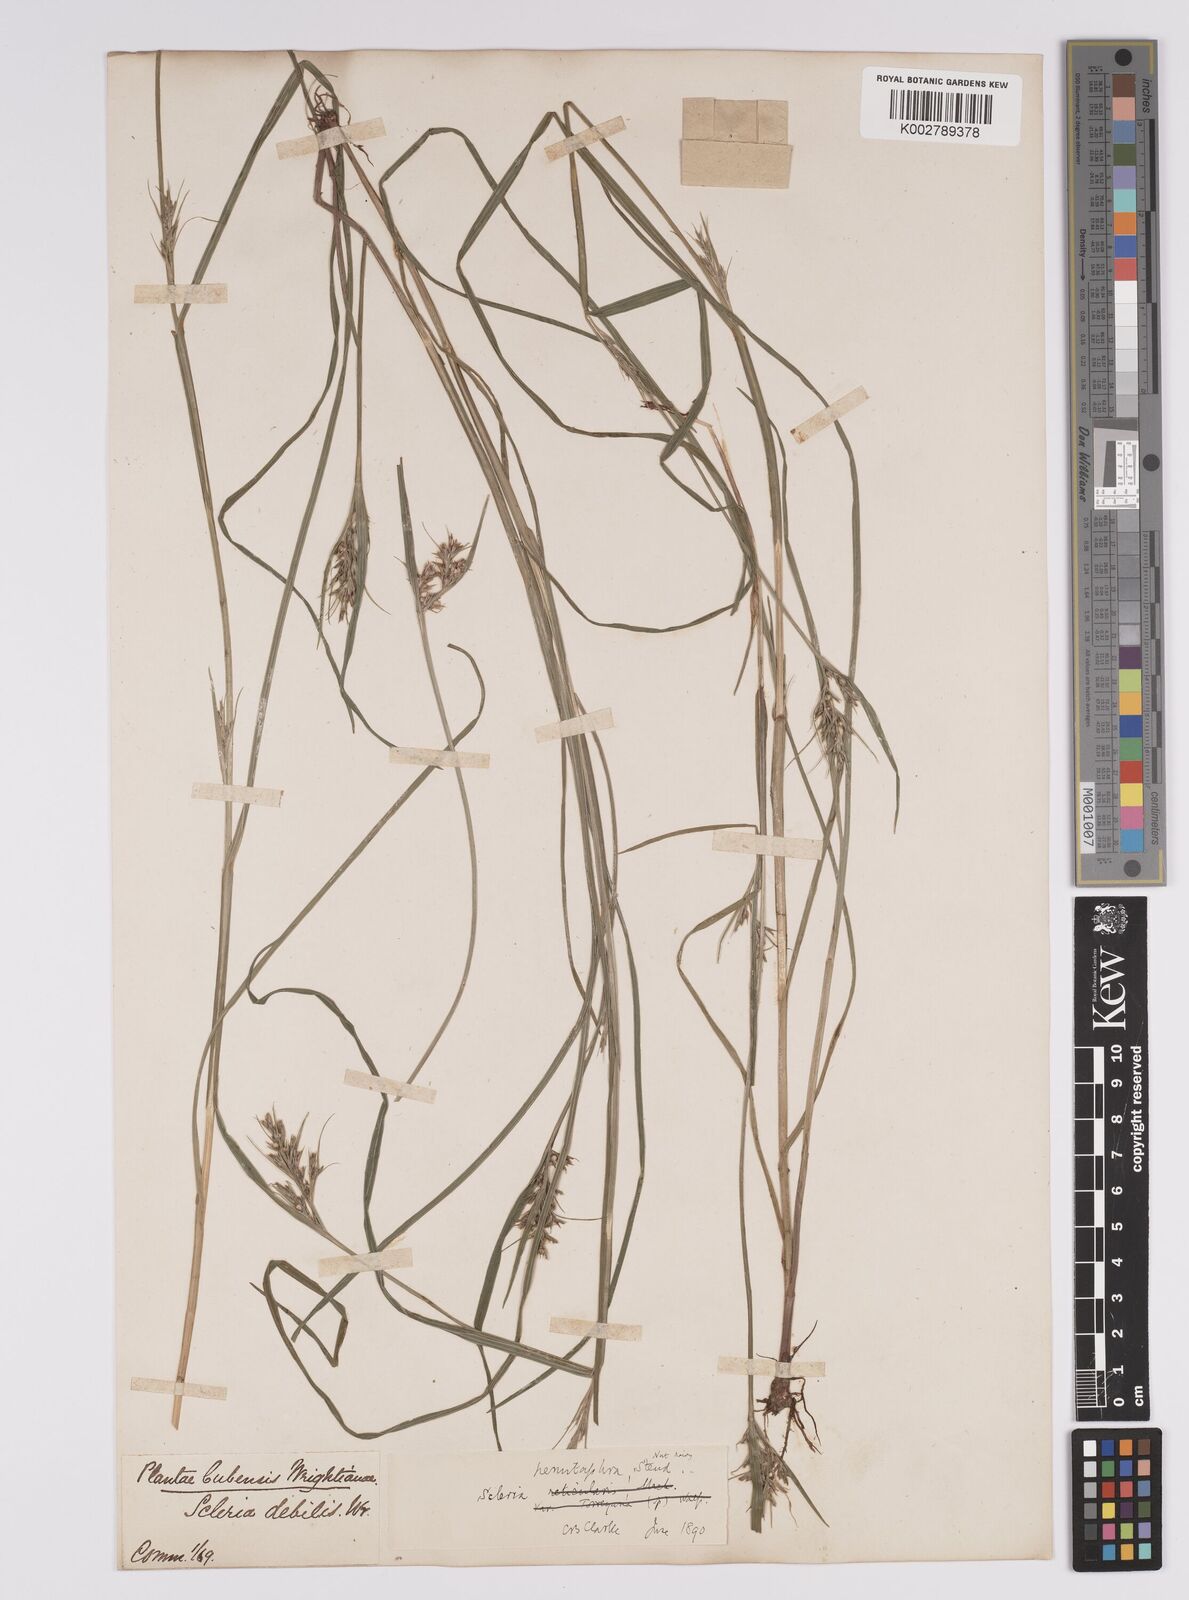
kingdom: Plantae
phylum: Tracheophyta
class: Liliopsida
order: Poales
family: Cyperaceae
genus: Scleria
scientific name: Scleria muehlenbergii
